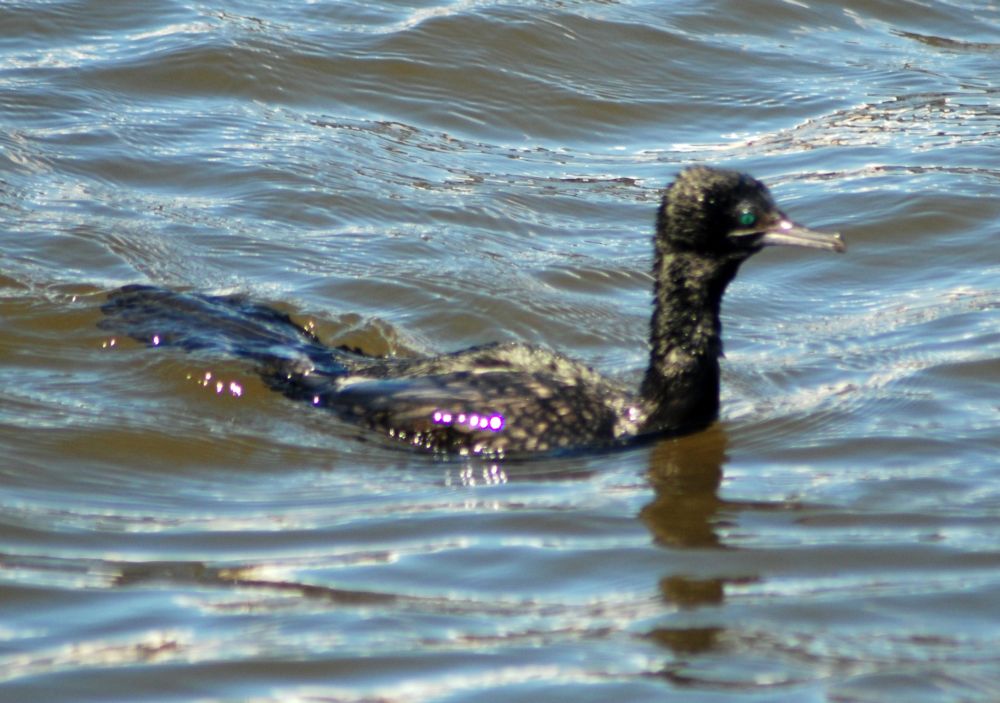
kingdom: Animalia
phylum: Chordata
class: Aves
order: Suliformes
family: Phalacrocoracidae
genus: Phalacrocorax
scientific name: Phalacrocorax sulcirostris
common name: Little black cormorant
